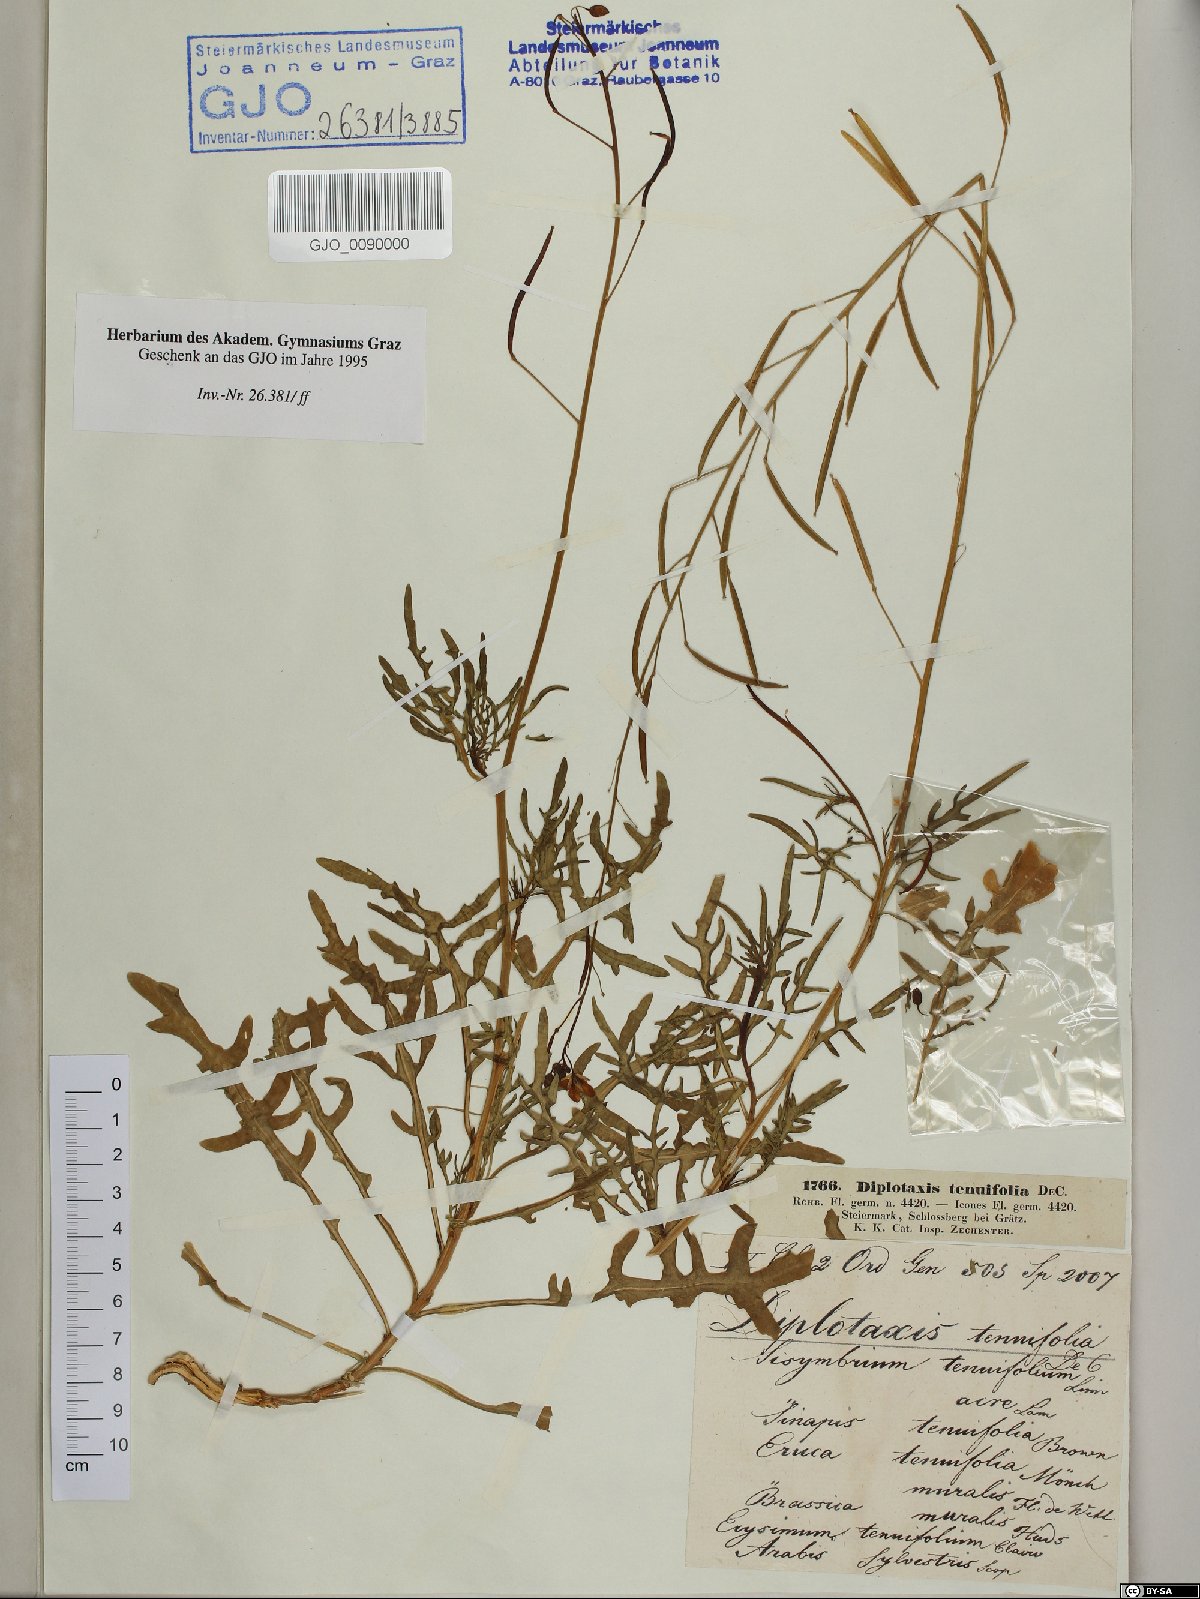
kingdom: Plantae
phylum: Tracheophyta
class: Magnoliopsida
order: Brassicales
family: Brassicaceae
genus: Diplotaxis
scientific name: Diplotaxis tenuifolia
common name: Perennial wall-rocket
